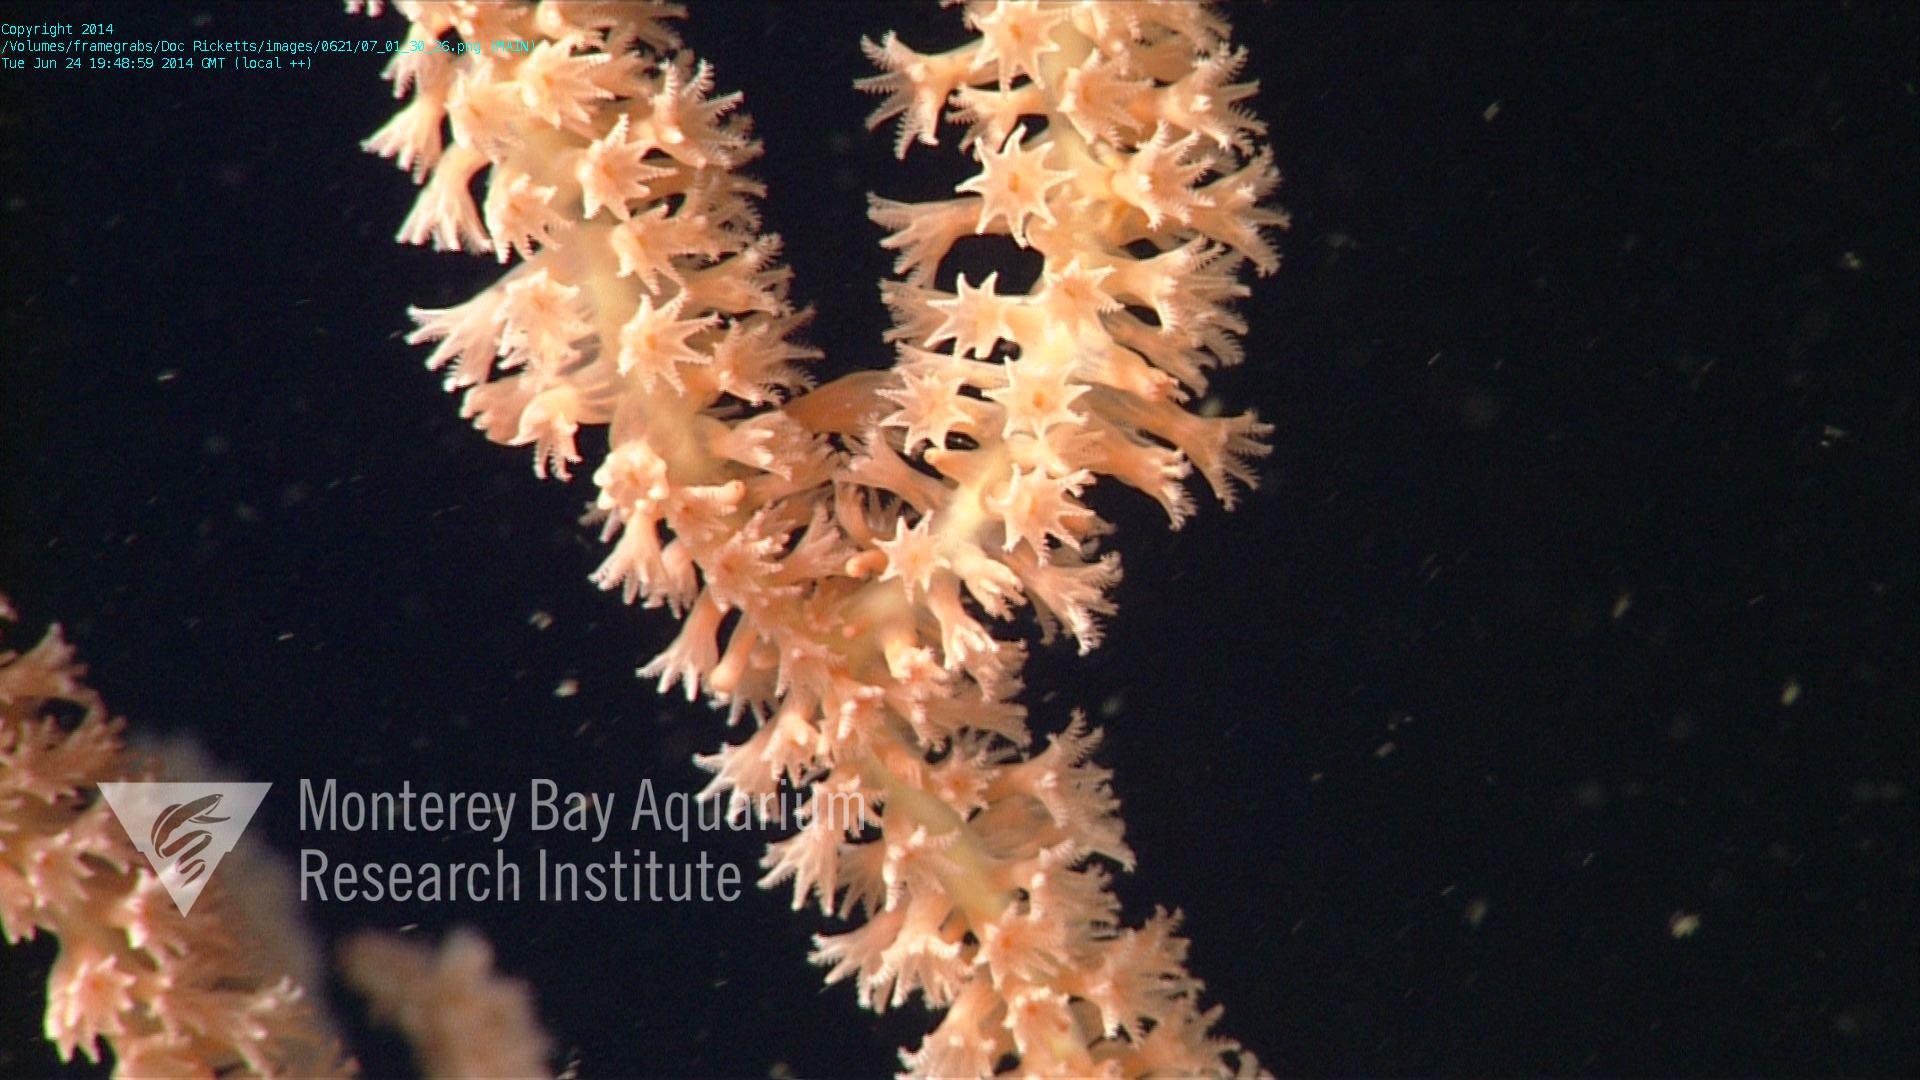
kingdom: Animalia
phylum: Cnidaria
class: Anthozoa
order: Scleralcyonacea
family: Keratoisididae
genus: Keratoisis
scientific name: Keratoisis
